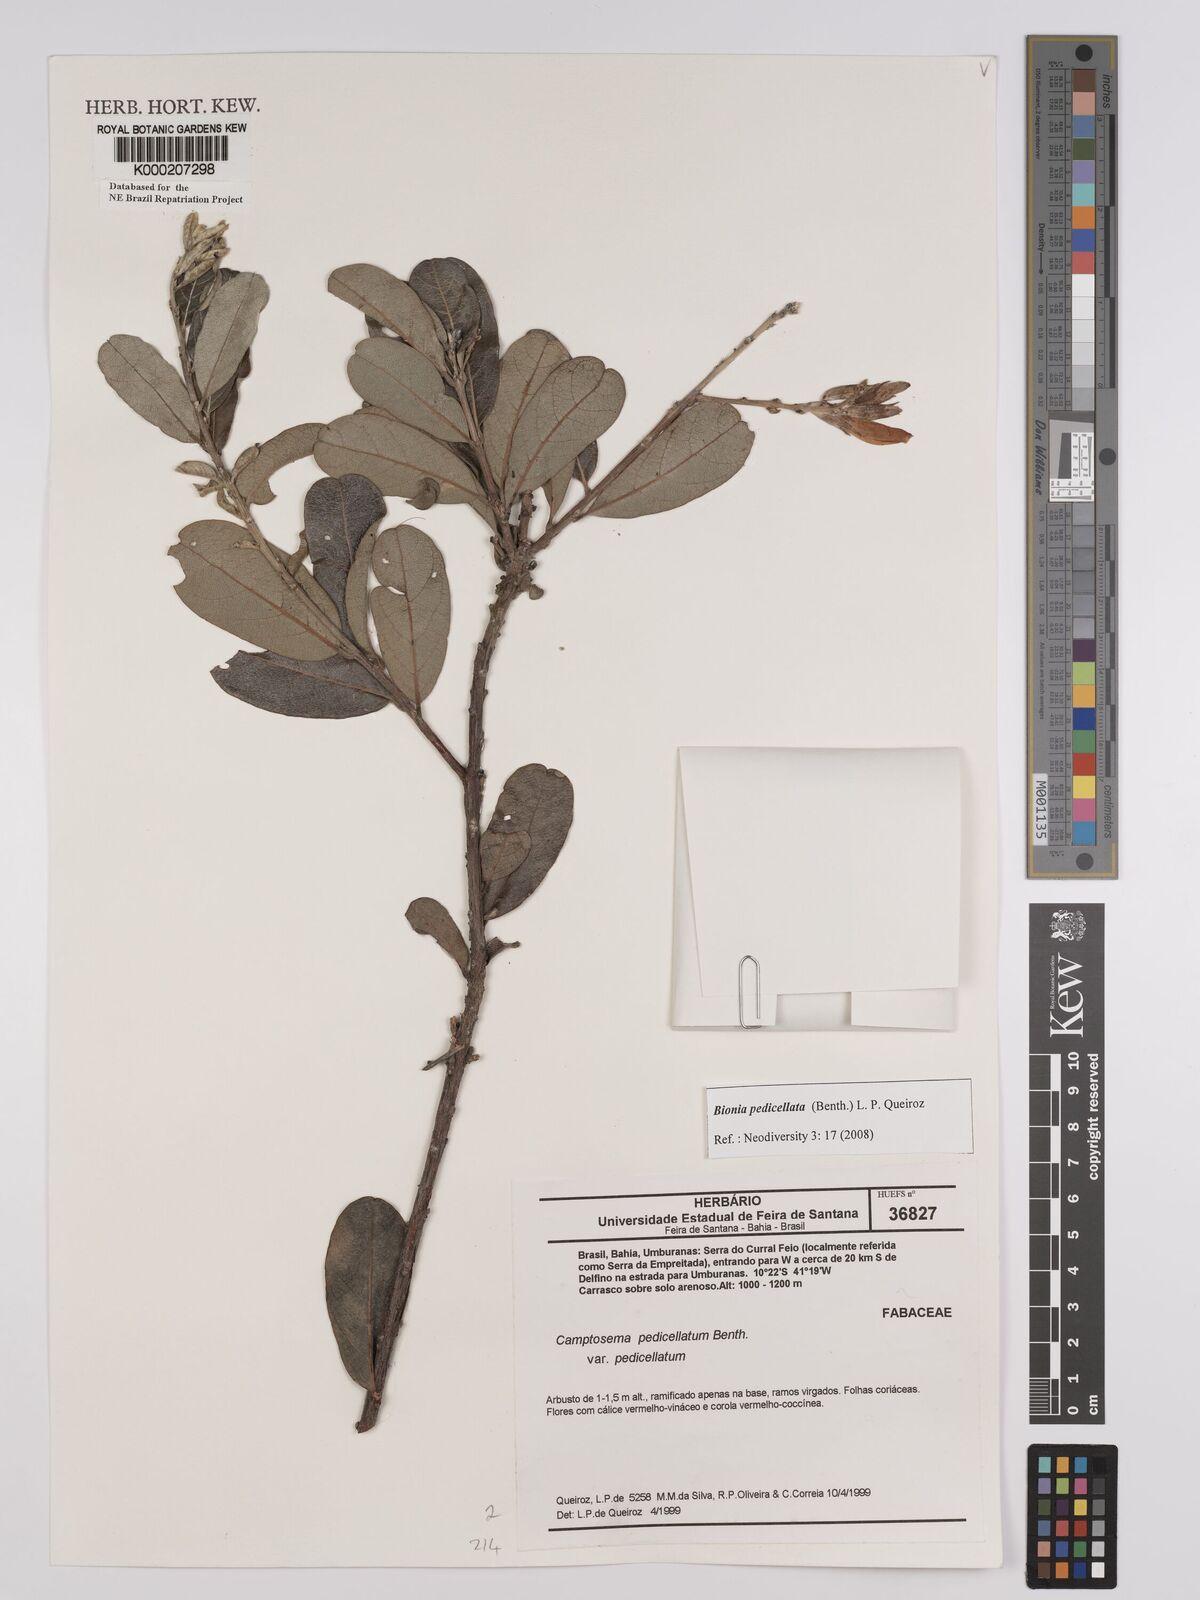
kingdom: Plantae
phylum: Tracheophyta
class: Magnoliopsida
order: Fabales
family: Fabaceae
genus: Camptosema
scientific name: Camptosema pedicellatum
